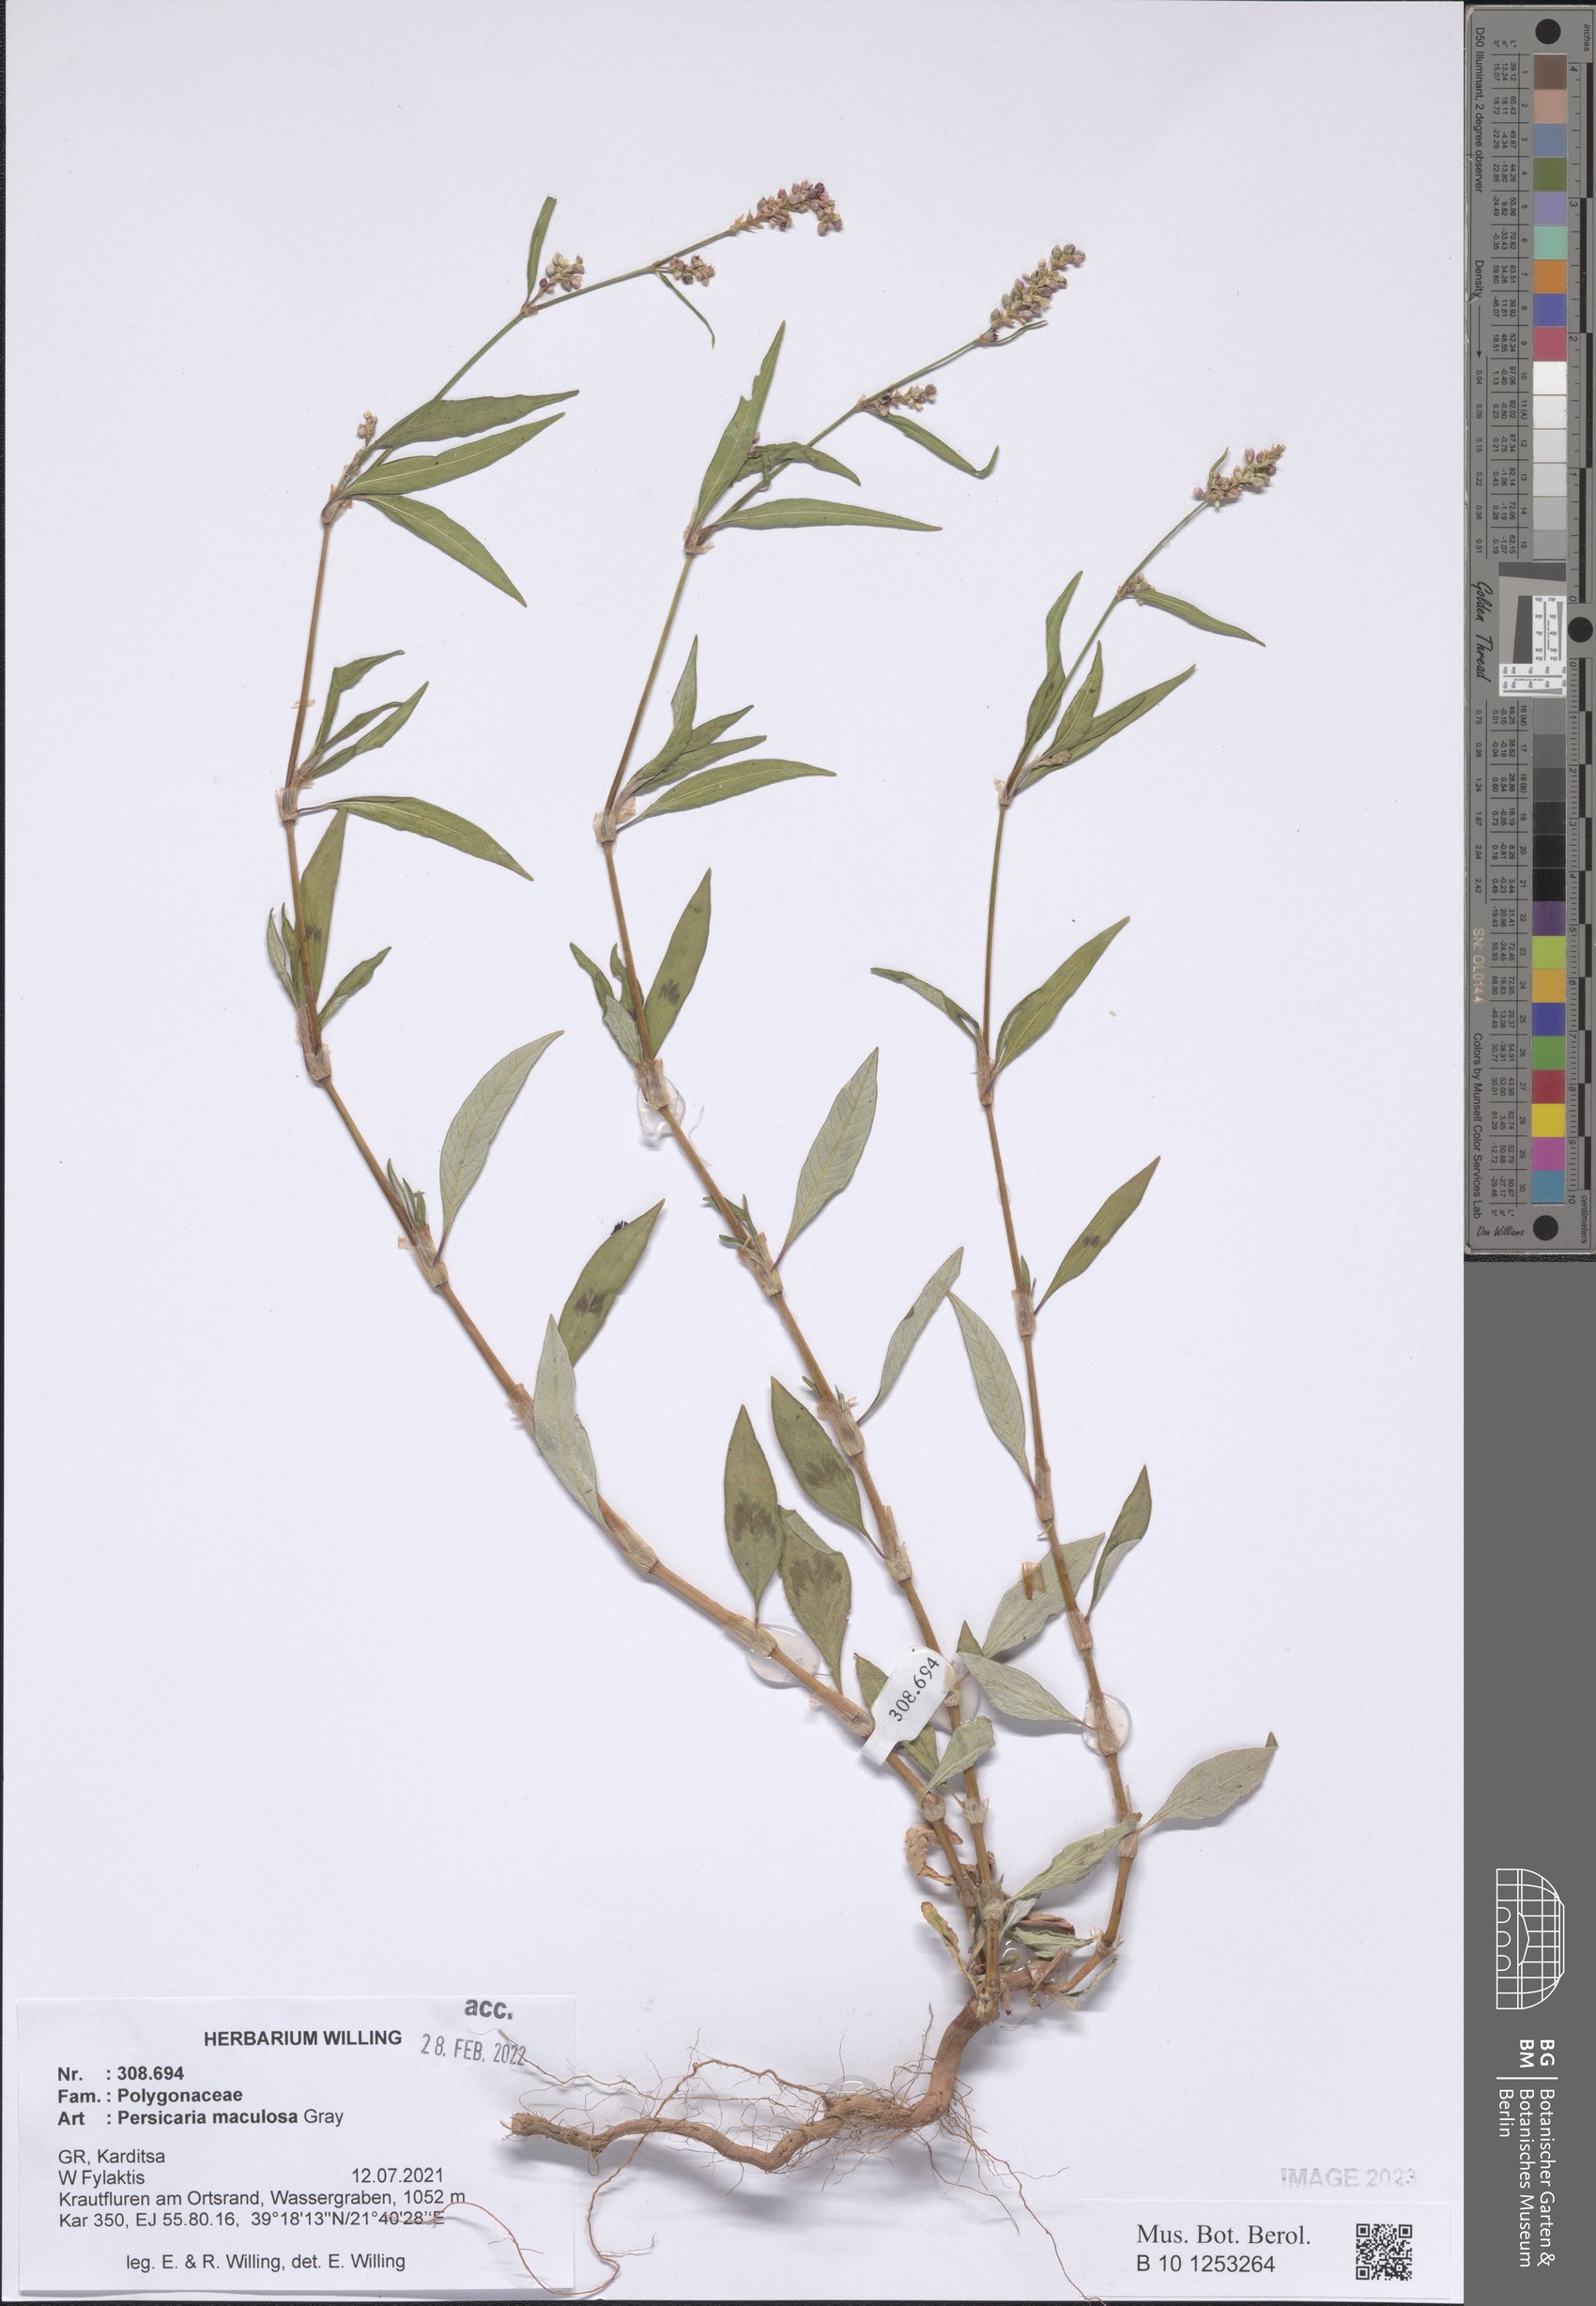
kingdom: Plantae
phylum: Tracheophyta
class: Magnoliopsida
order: Caryophyllales
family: Polygonaceae
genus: Persicaria
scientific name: Persicaria maculosa
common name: Redshank
